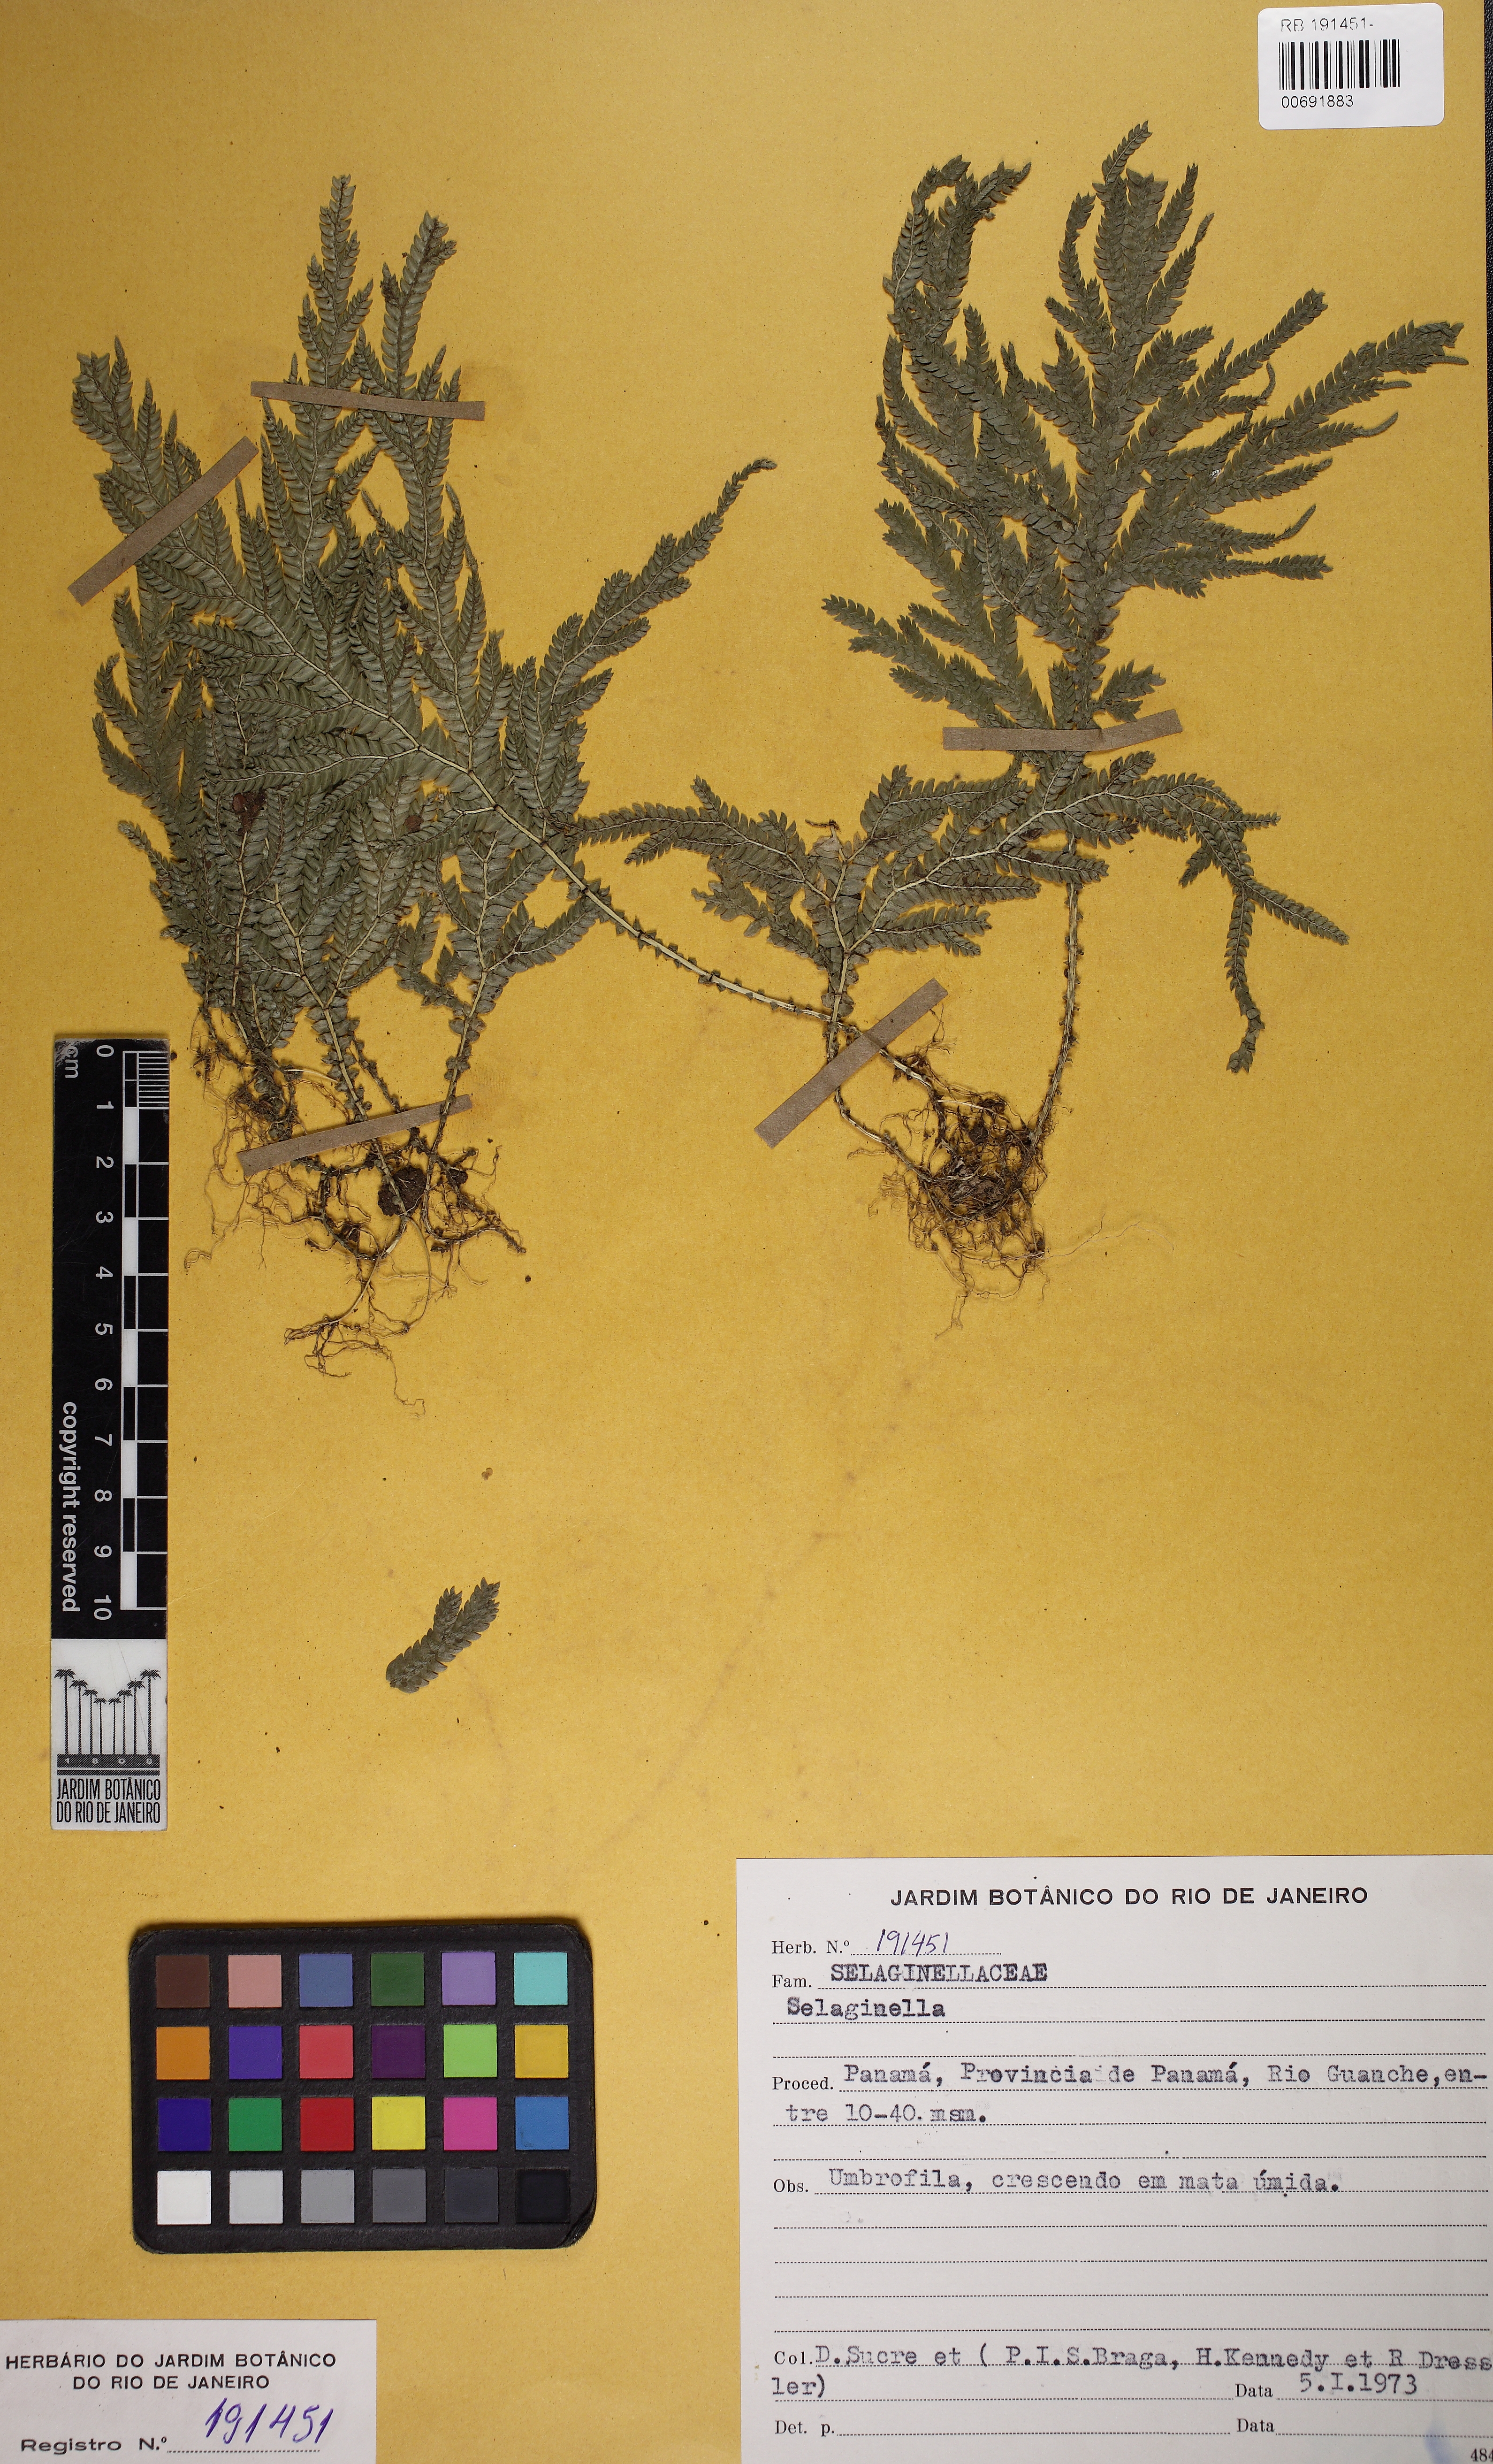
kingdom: Plantae
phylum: Tracheophyta
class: Lycopodiopsida
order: Selaginellales
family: Selaginellaceae
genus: Selaginella
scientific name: Selaginella arthritica
